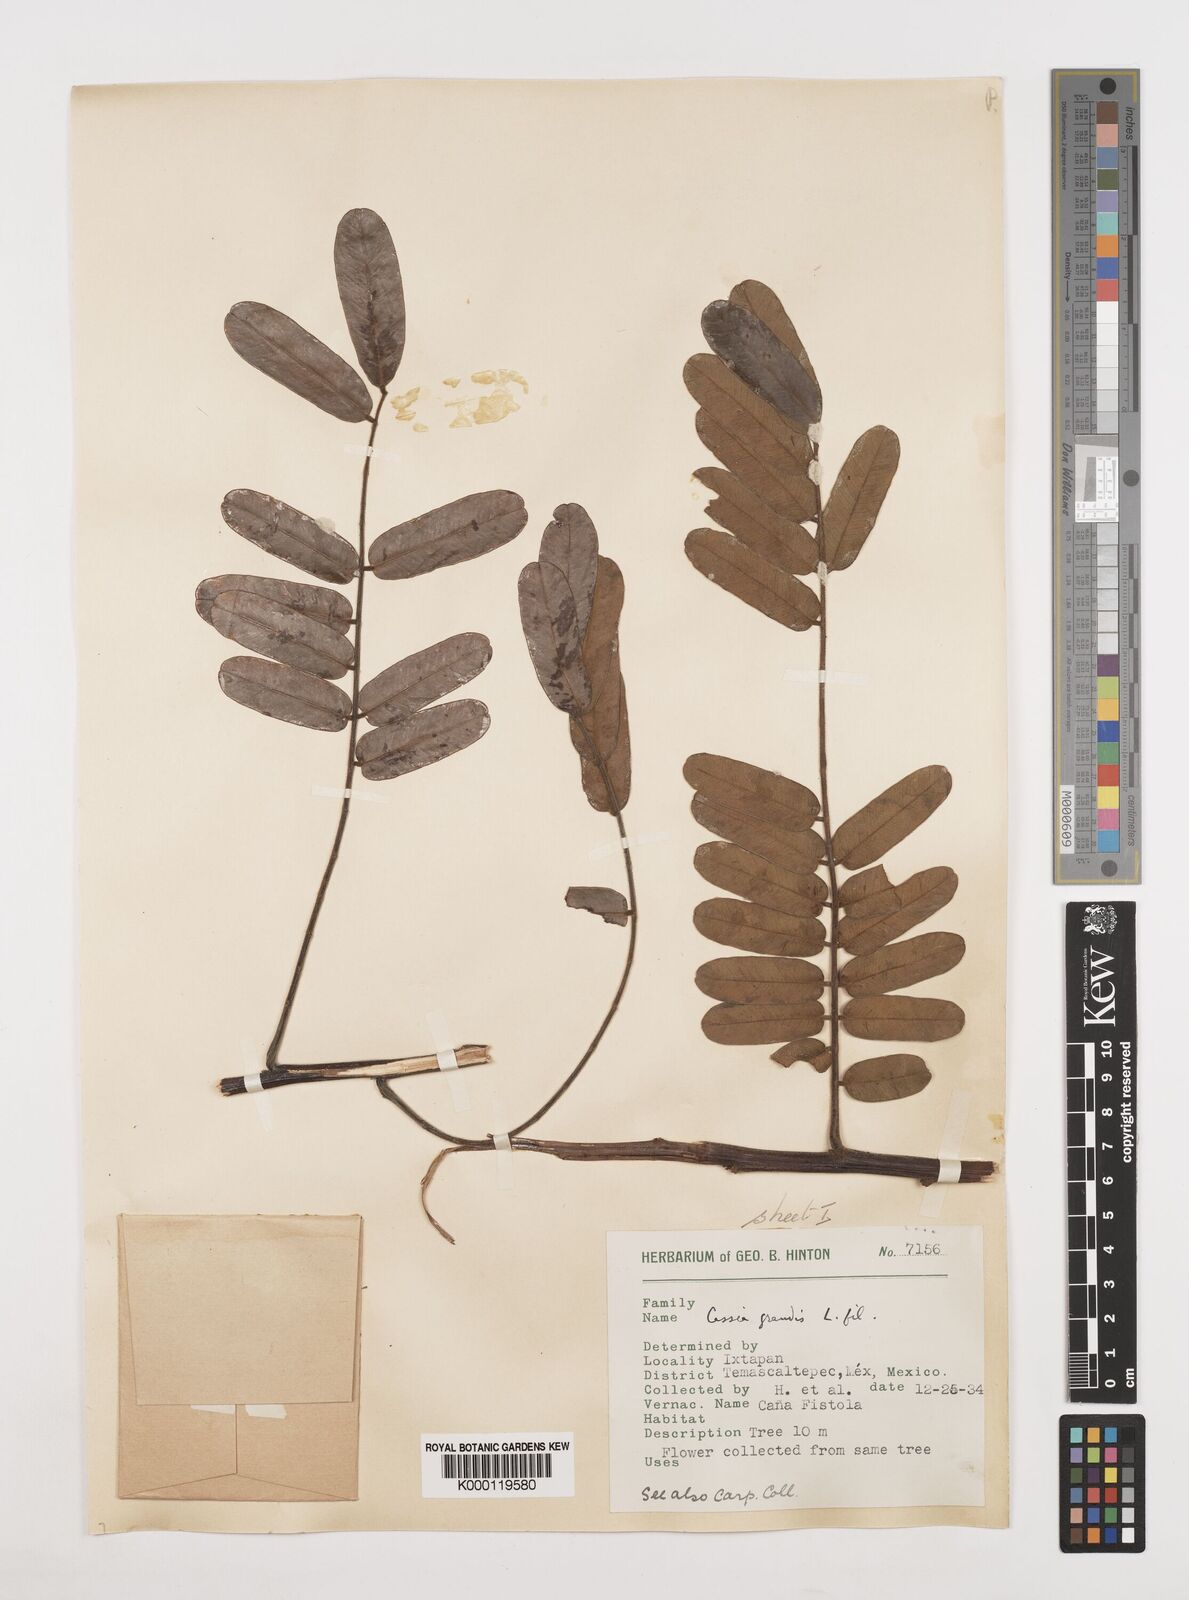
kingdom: Plantae
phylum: Tracheophyta
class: Magnoliopsida
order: Fabales
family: Fabaceae
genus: Cassia
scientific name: Cassia grandis
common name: Appleblossom cassia
